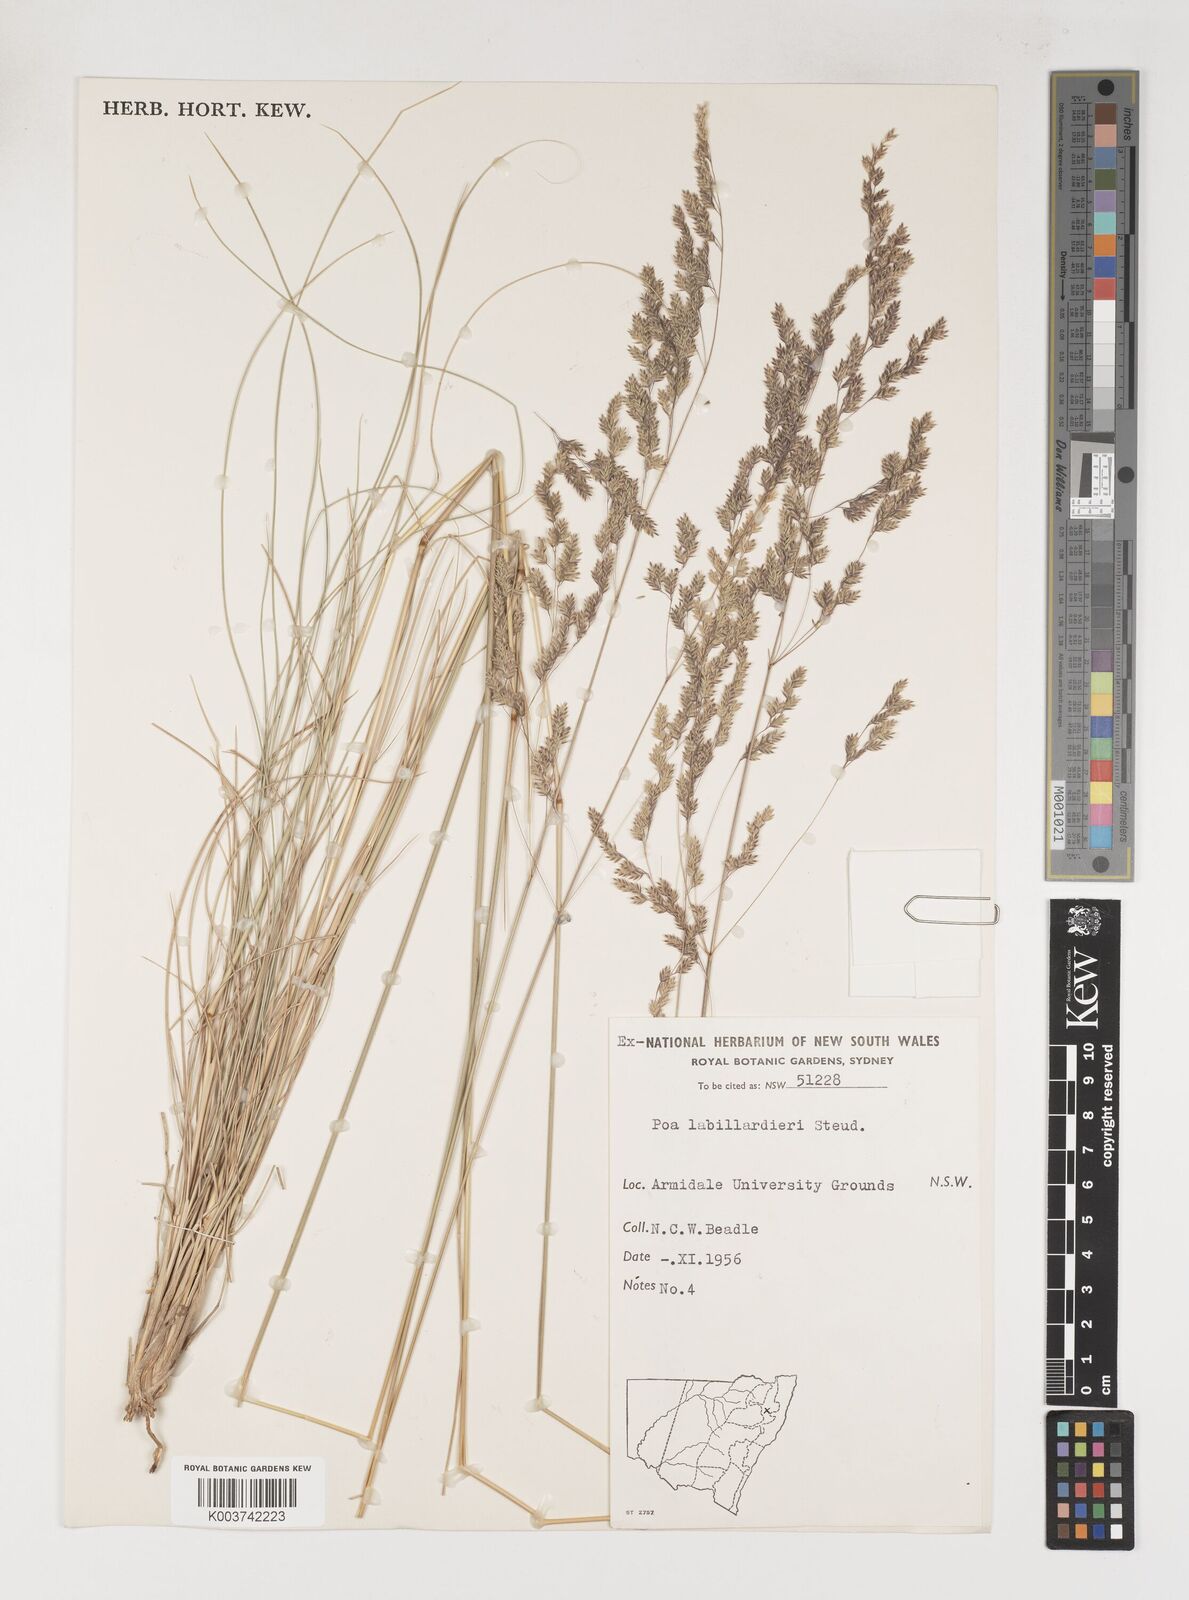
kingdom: Plantae
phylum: Tracheophyta
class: Liliopsida
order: Poales
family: Poaceae
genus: Poa
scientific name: Poa labillardierei
